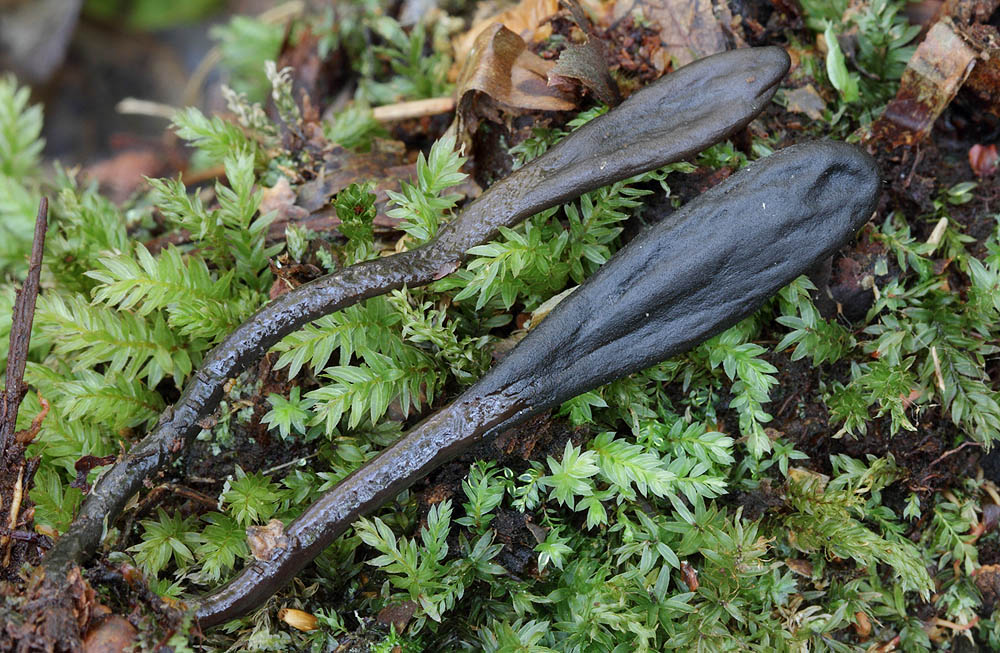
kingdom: Fungi
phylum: Ascomycota
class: Geoglossomycetes
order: Geoglossales
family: Geoglossaceae
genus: Glutinoglossum
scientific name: Glutinoglossum heptaseptatum
